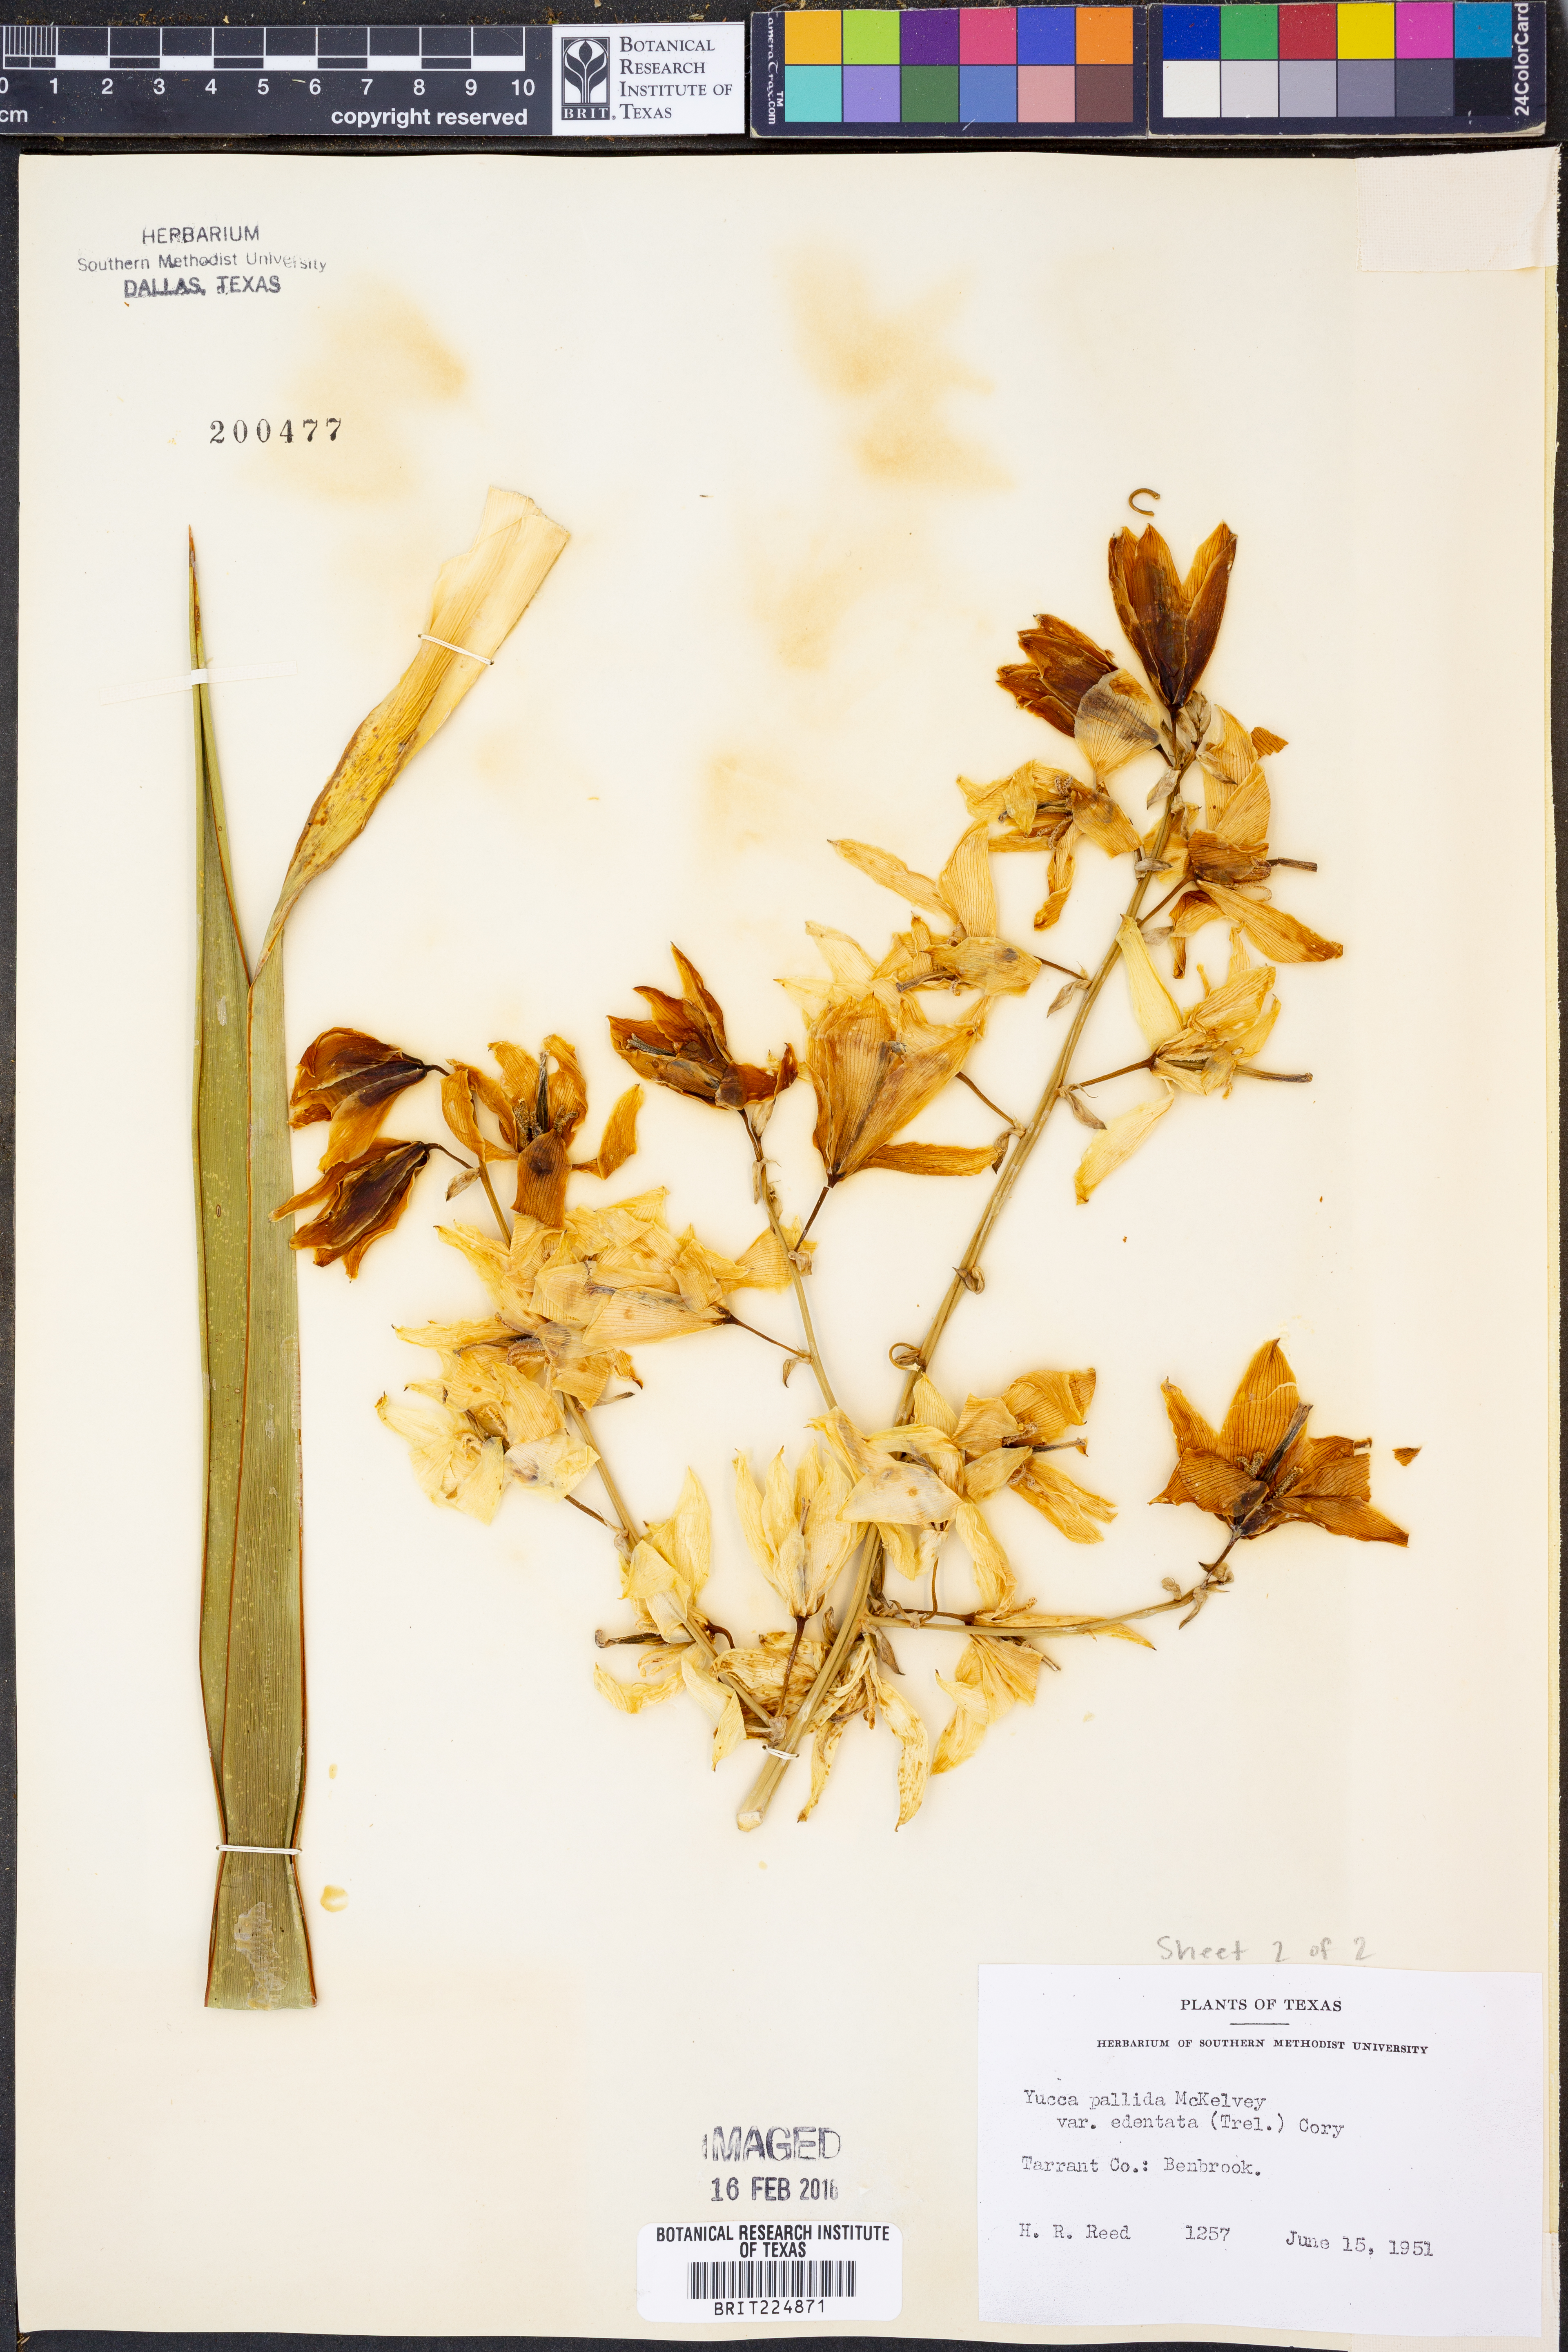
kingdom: Plantae
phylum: Tracheophyta
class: Liliopsida
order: Asparagales
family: Asparagaceae
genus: Yucca
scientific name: Yucca pallida
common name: Pale leaf yucca
